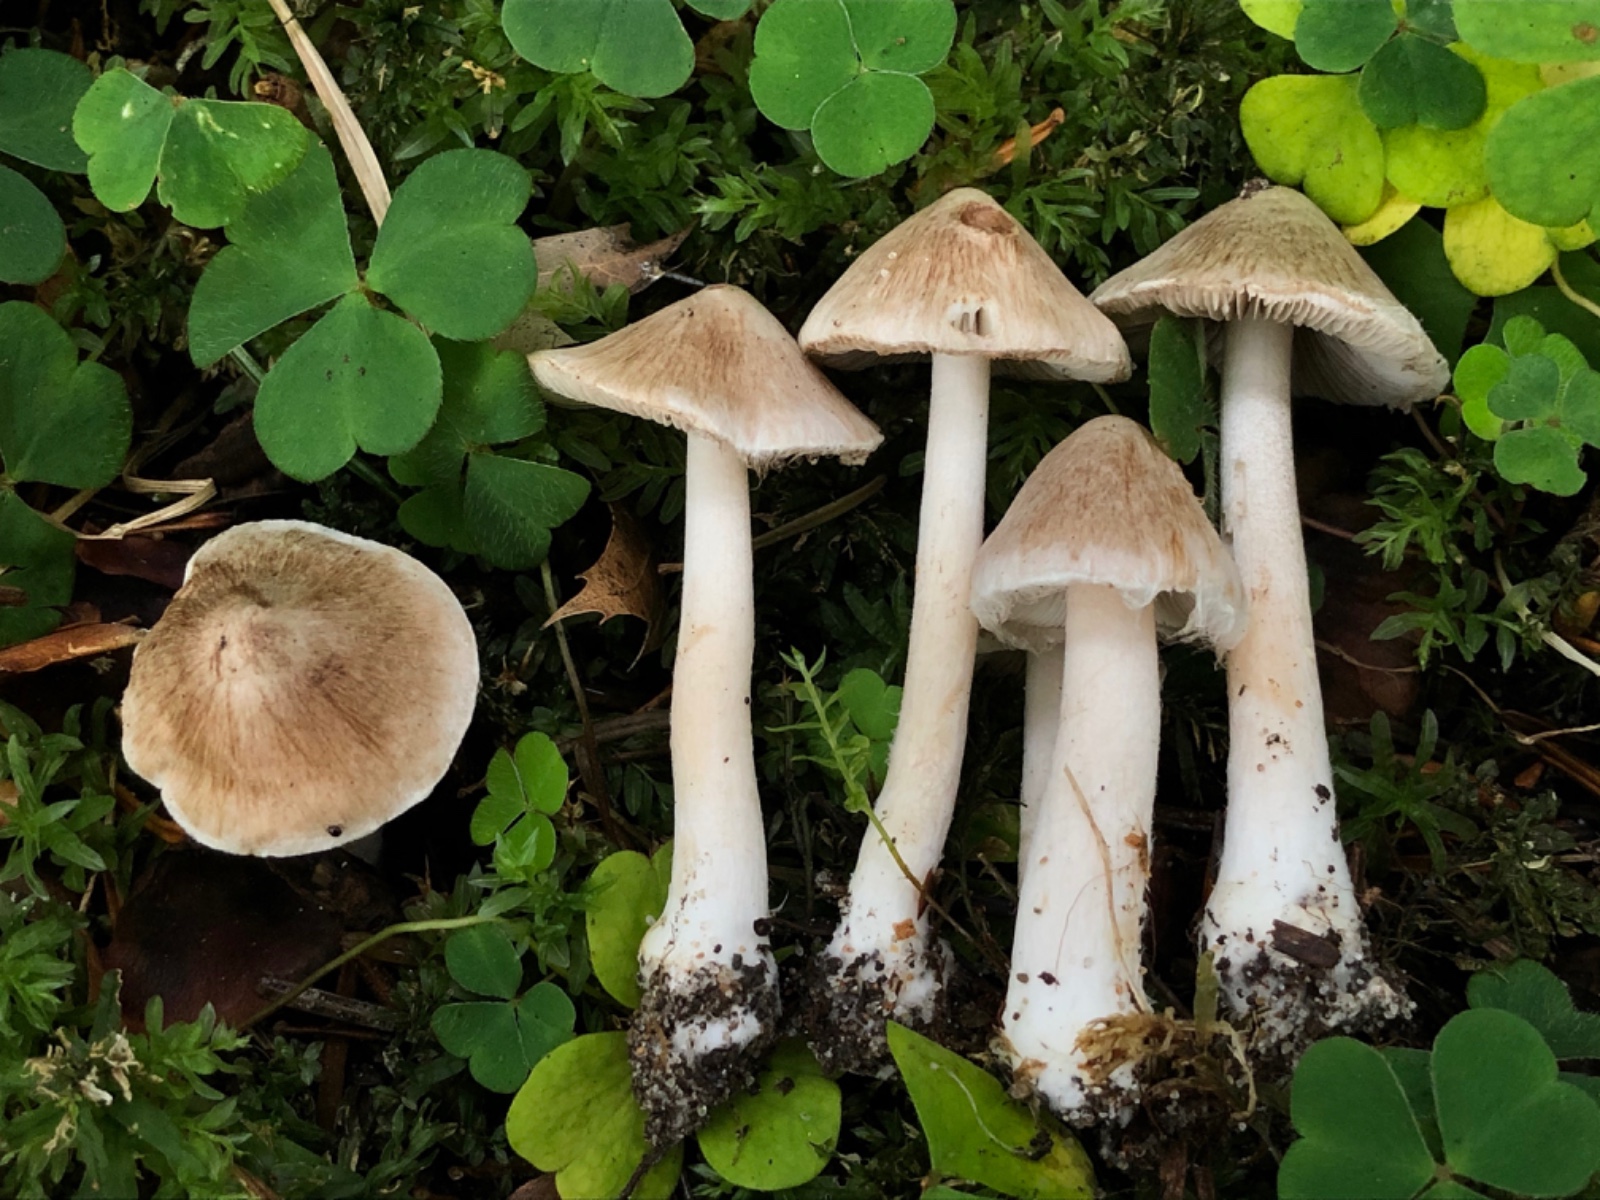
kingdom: Fungi
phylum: Basidiomycota
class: Agaricomycetes
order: Agaricales
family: Inocybaceae
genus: Inocybe
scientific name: Inocybe
